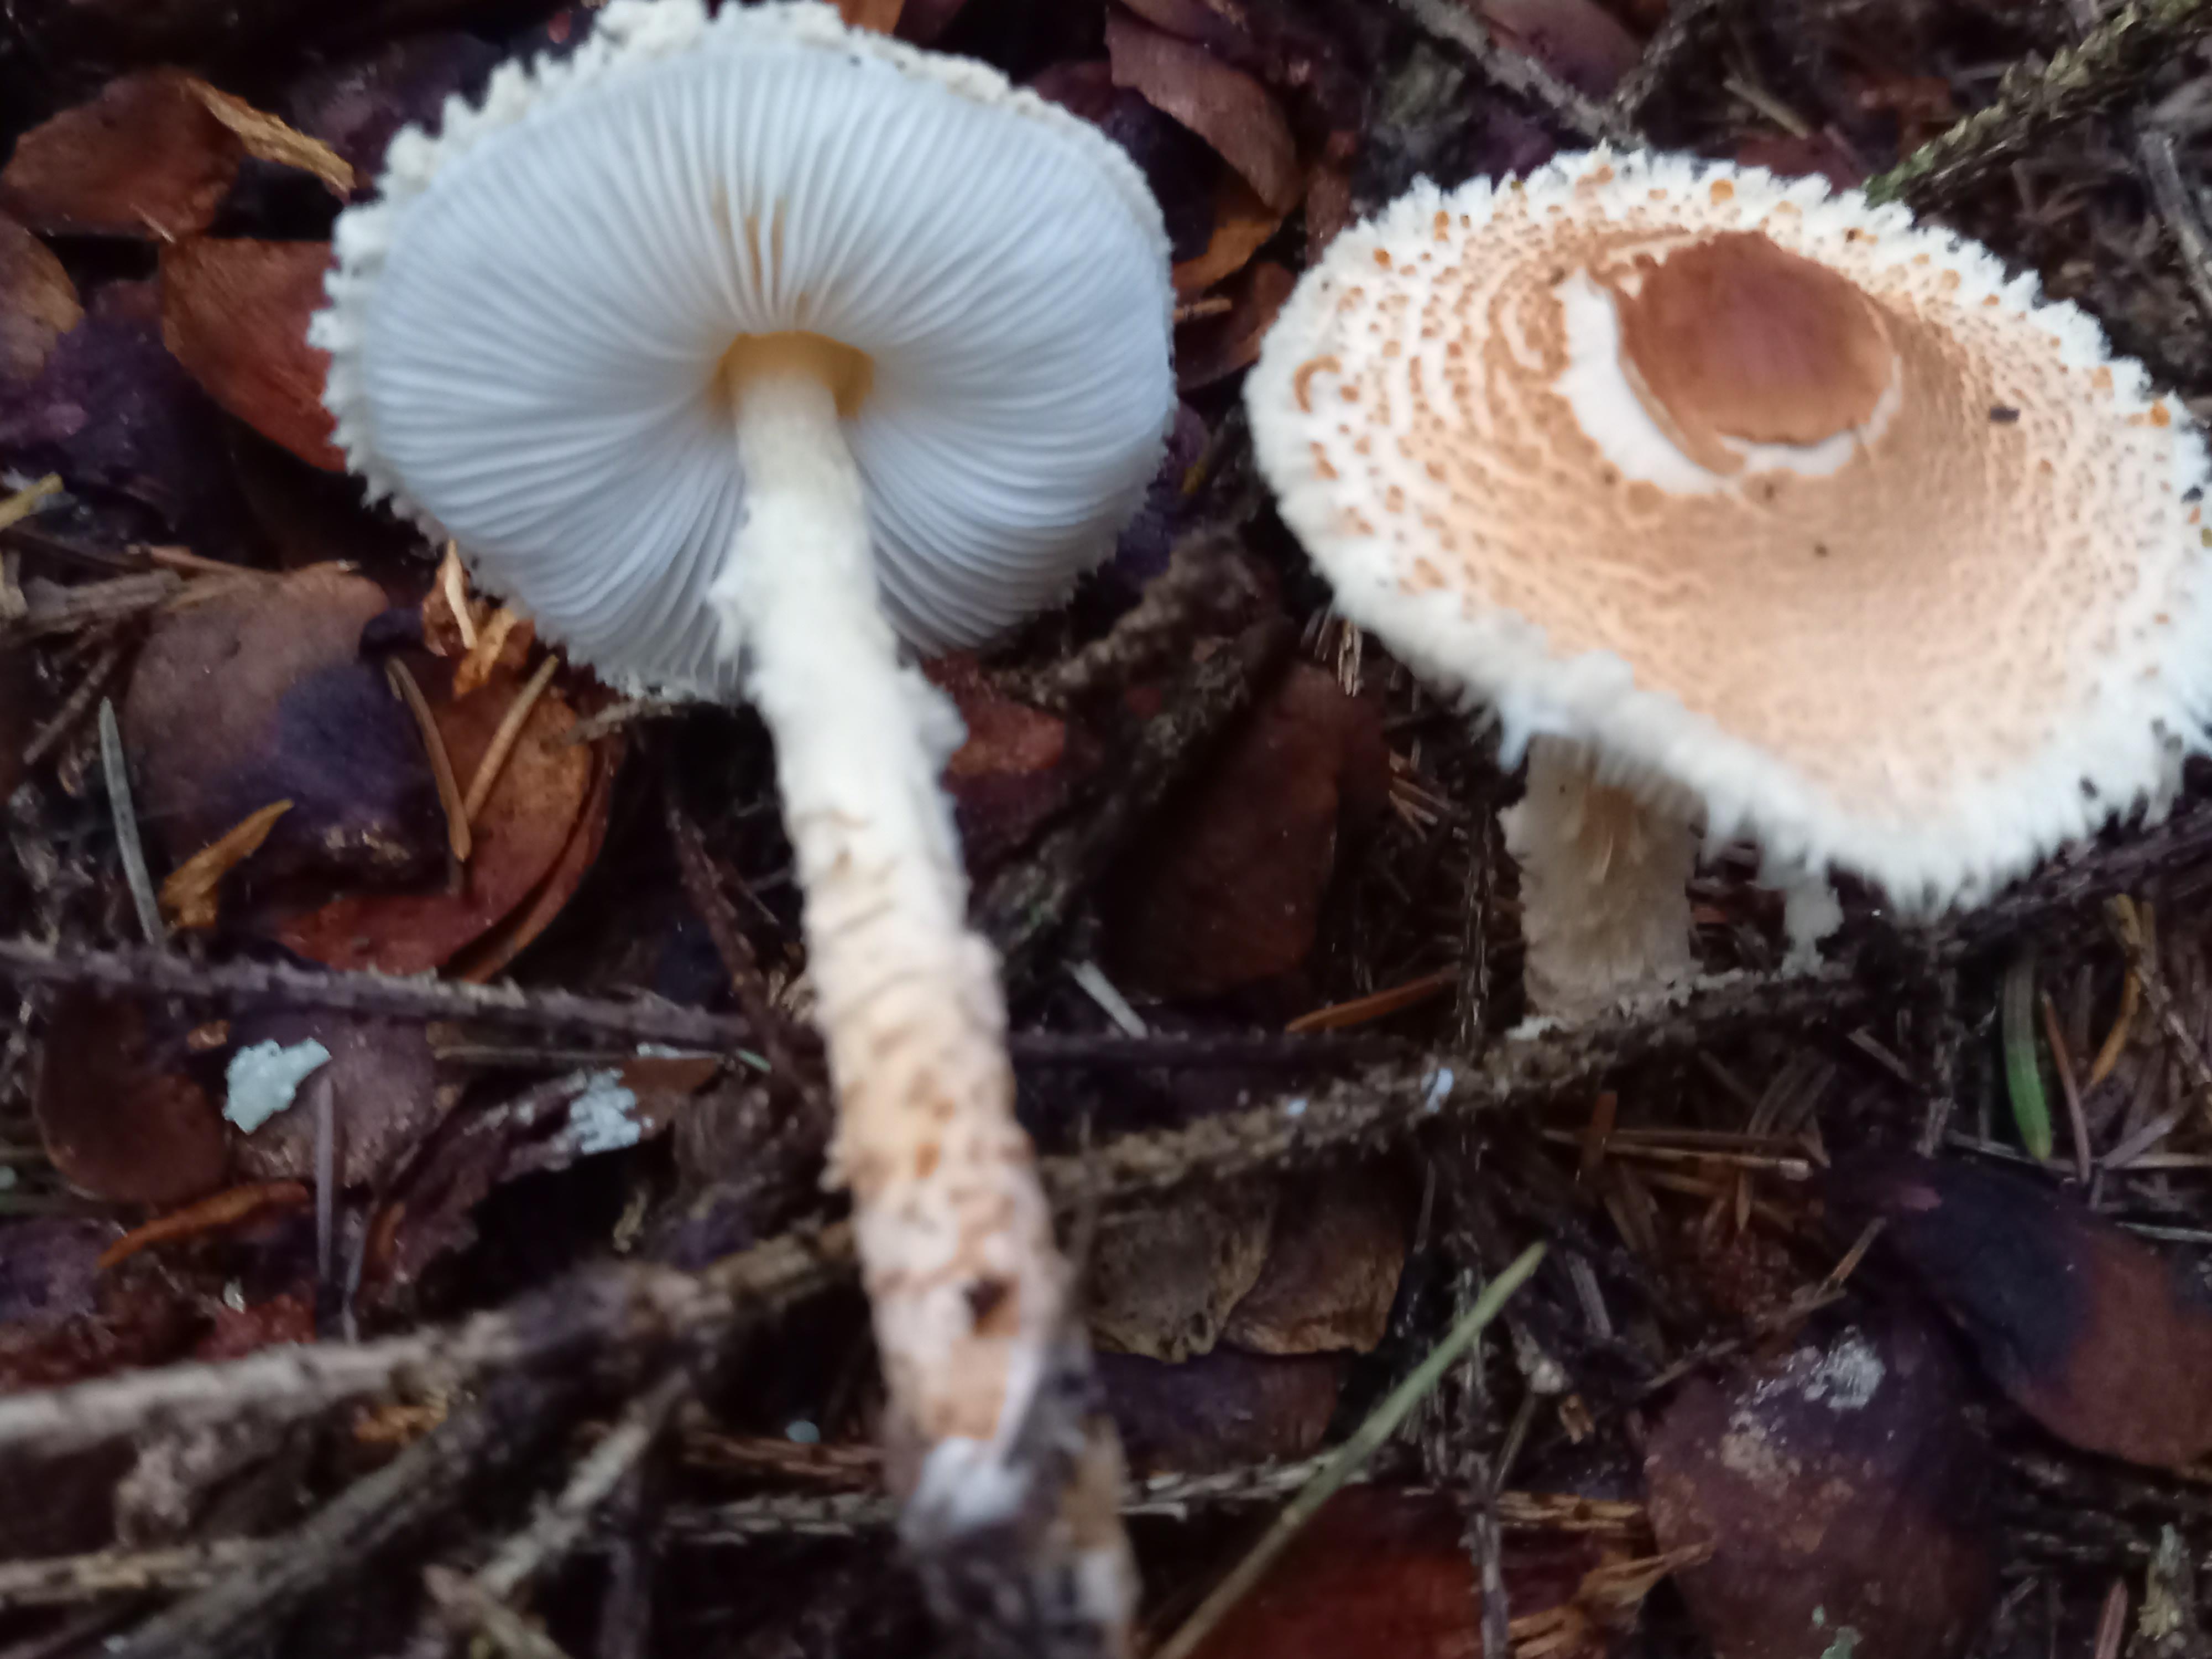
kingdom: Fungi
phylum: Basidiomycota
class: Agaricomycetes
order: Agaricales
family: Agaricaceae
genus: Lepiota
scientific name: Lepiota magnispora
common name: gulfnugget parasolhat
